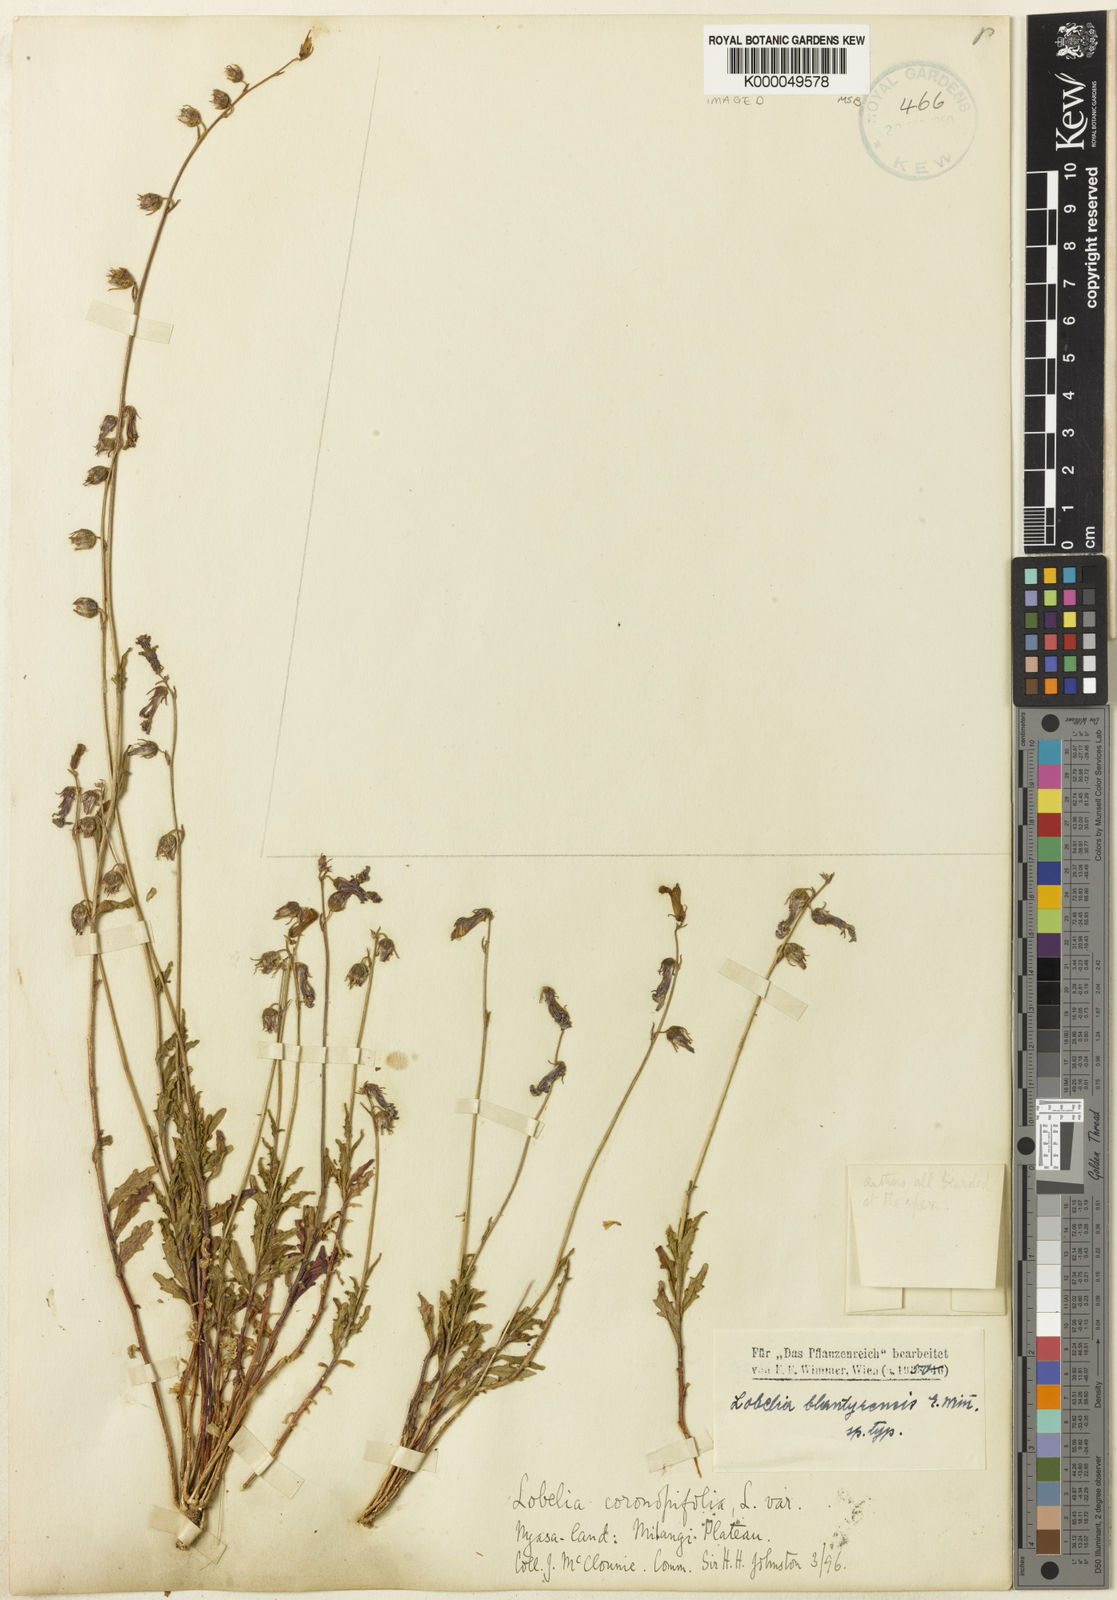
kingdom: Plantae
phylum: Tracheophyta
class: Magnoliopsida
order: Asterales
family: Campanulaceae
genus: Lobelia
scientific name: Lobelia blantyrensis
